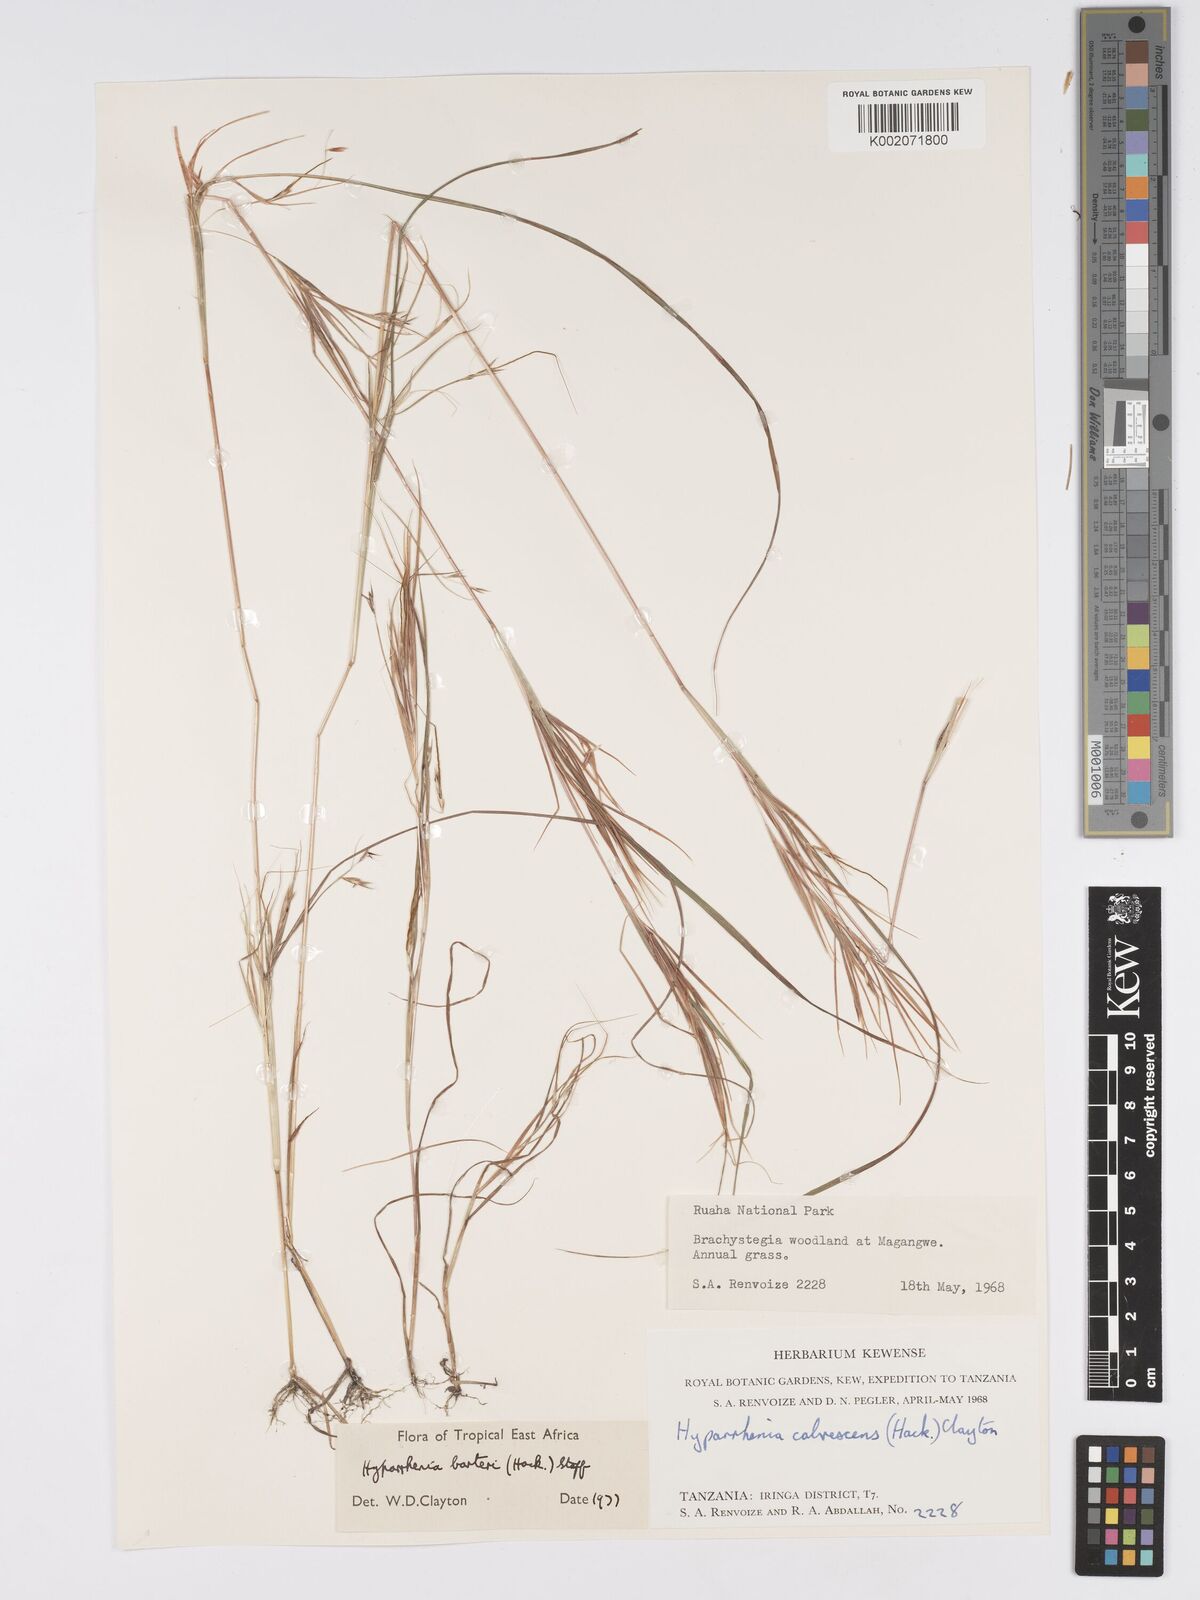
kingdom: Plantae
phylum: Tracheophyta
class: Liliopsida
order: Poales
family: Poaceae
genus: Hyparrhenia
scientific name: Hyparrhenia barteri
